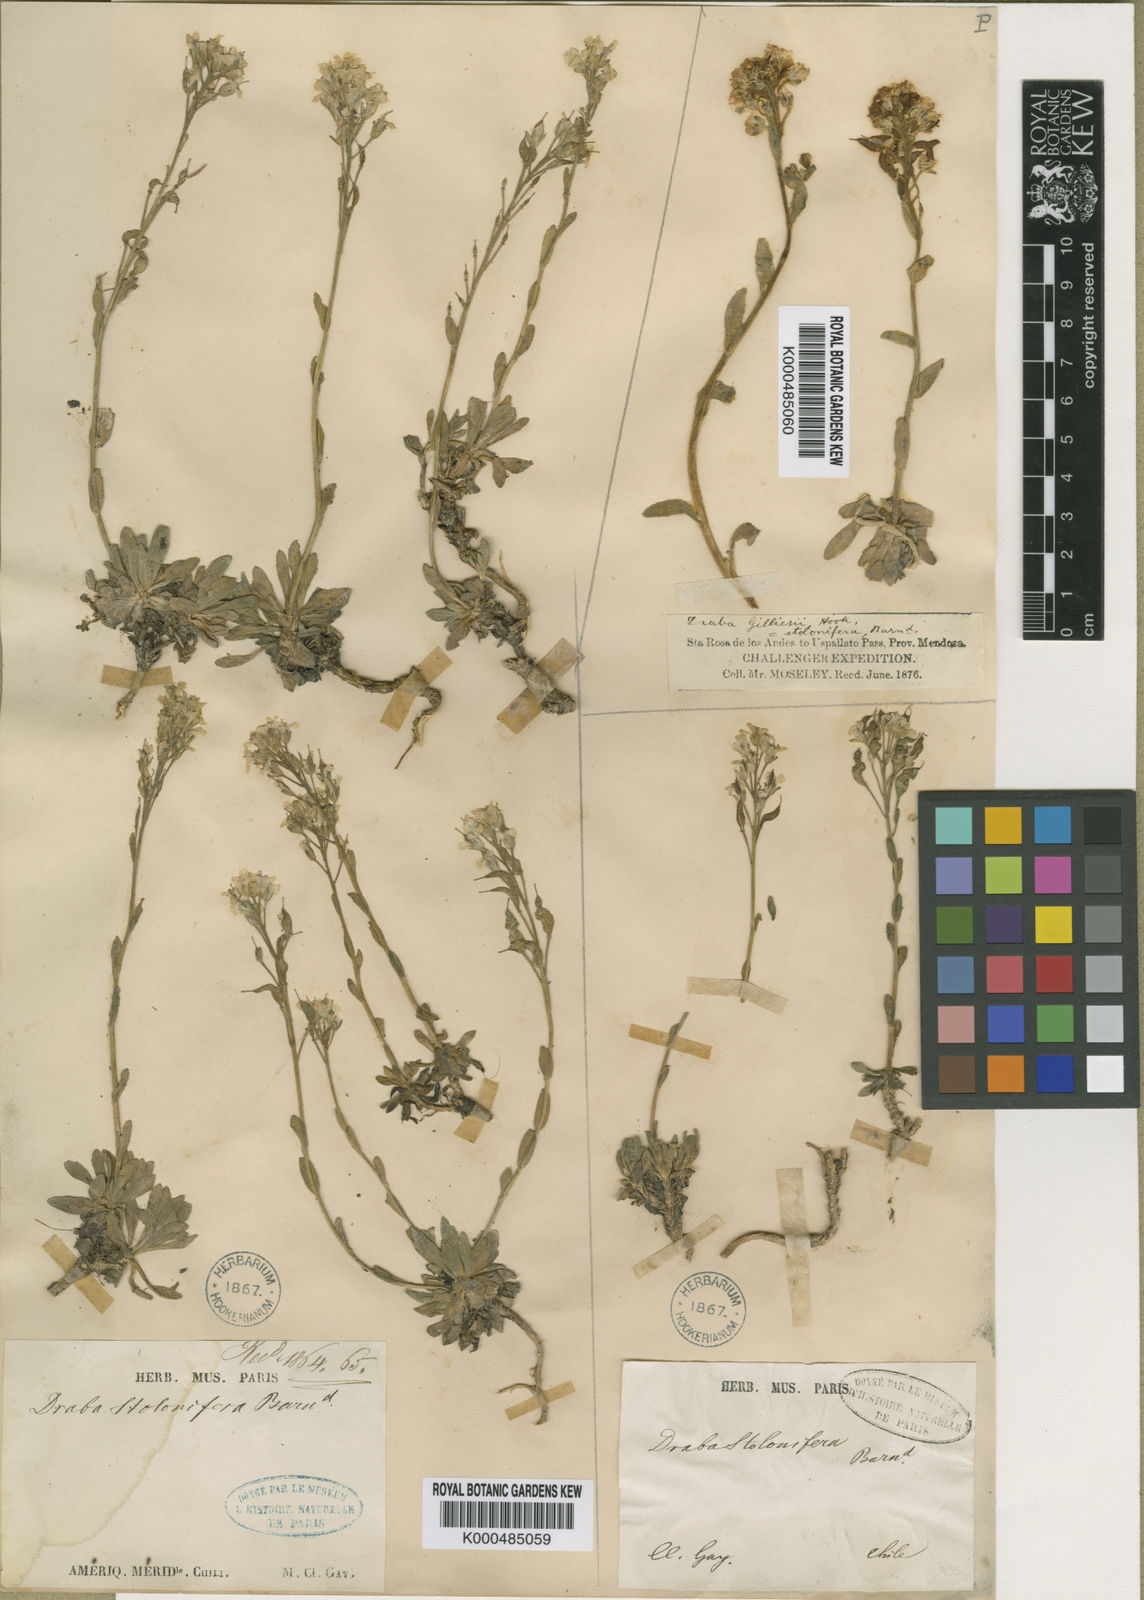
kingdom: Plantae
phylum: Tracheophyta
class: Magnoliopsida
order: Brassicales
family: Brassicaceae
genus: Draba
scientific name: Draba gilliesii
